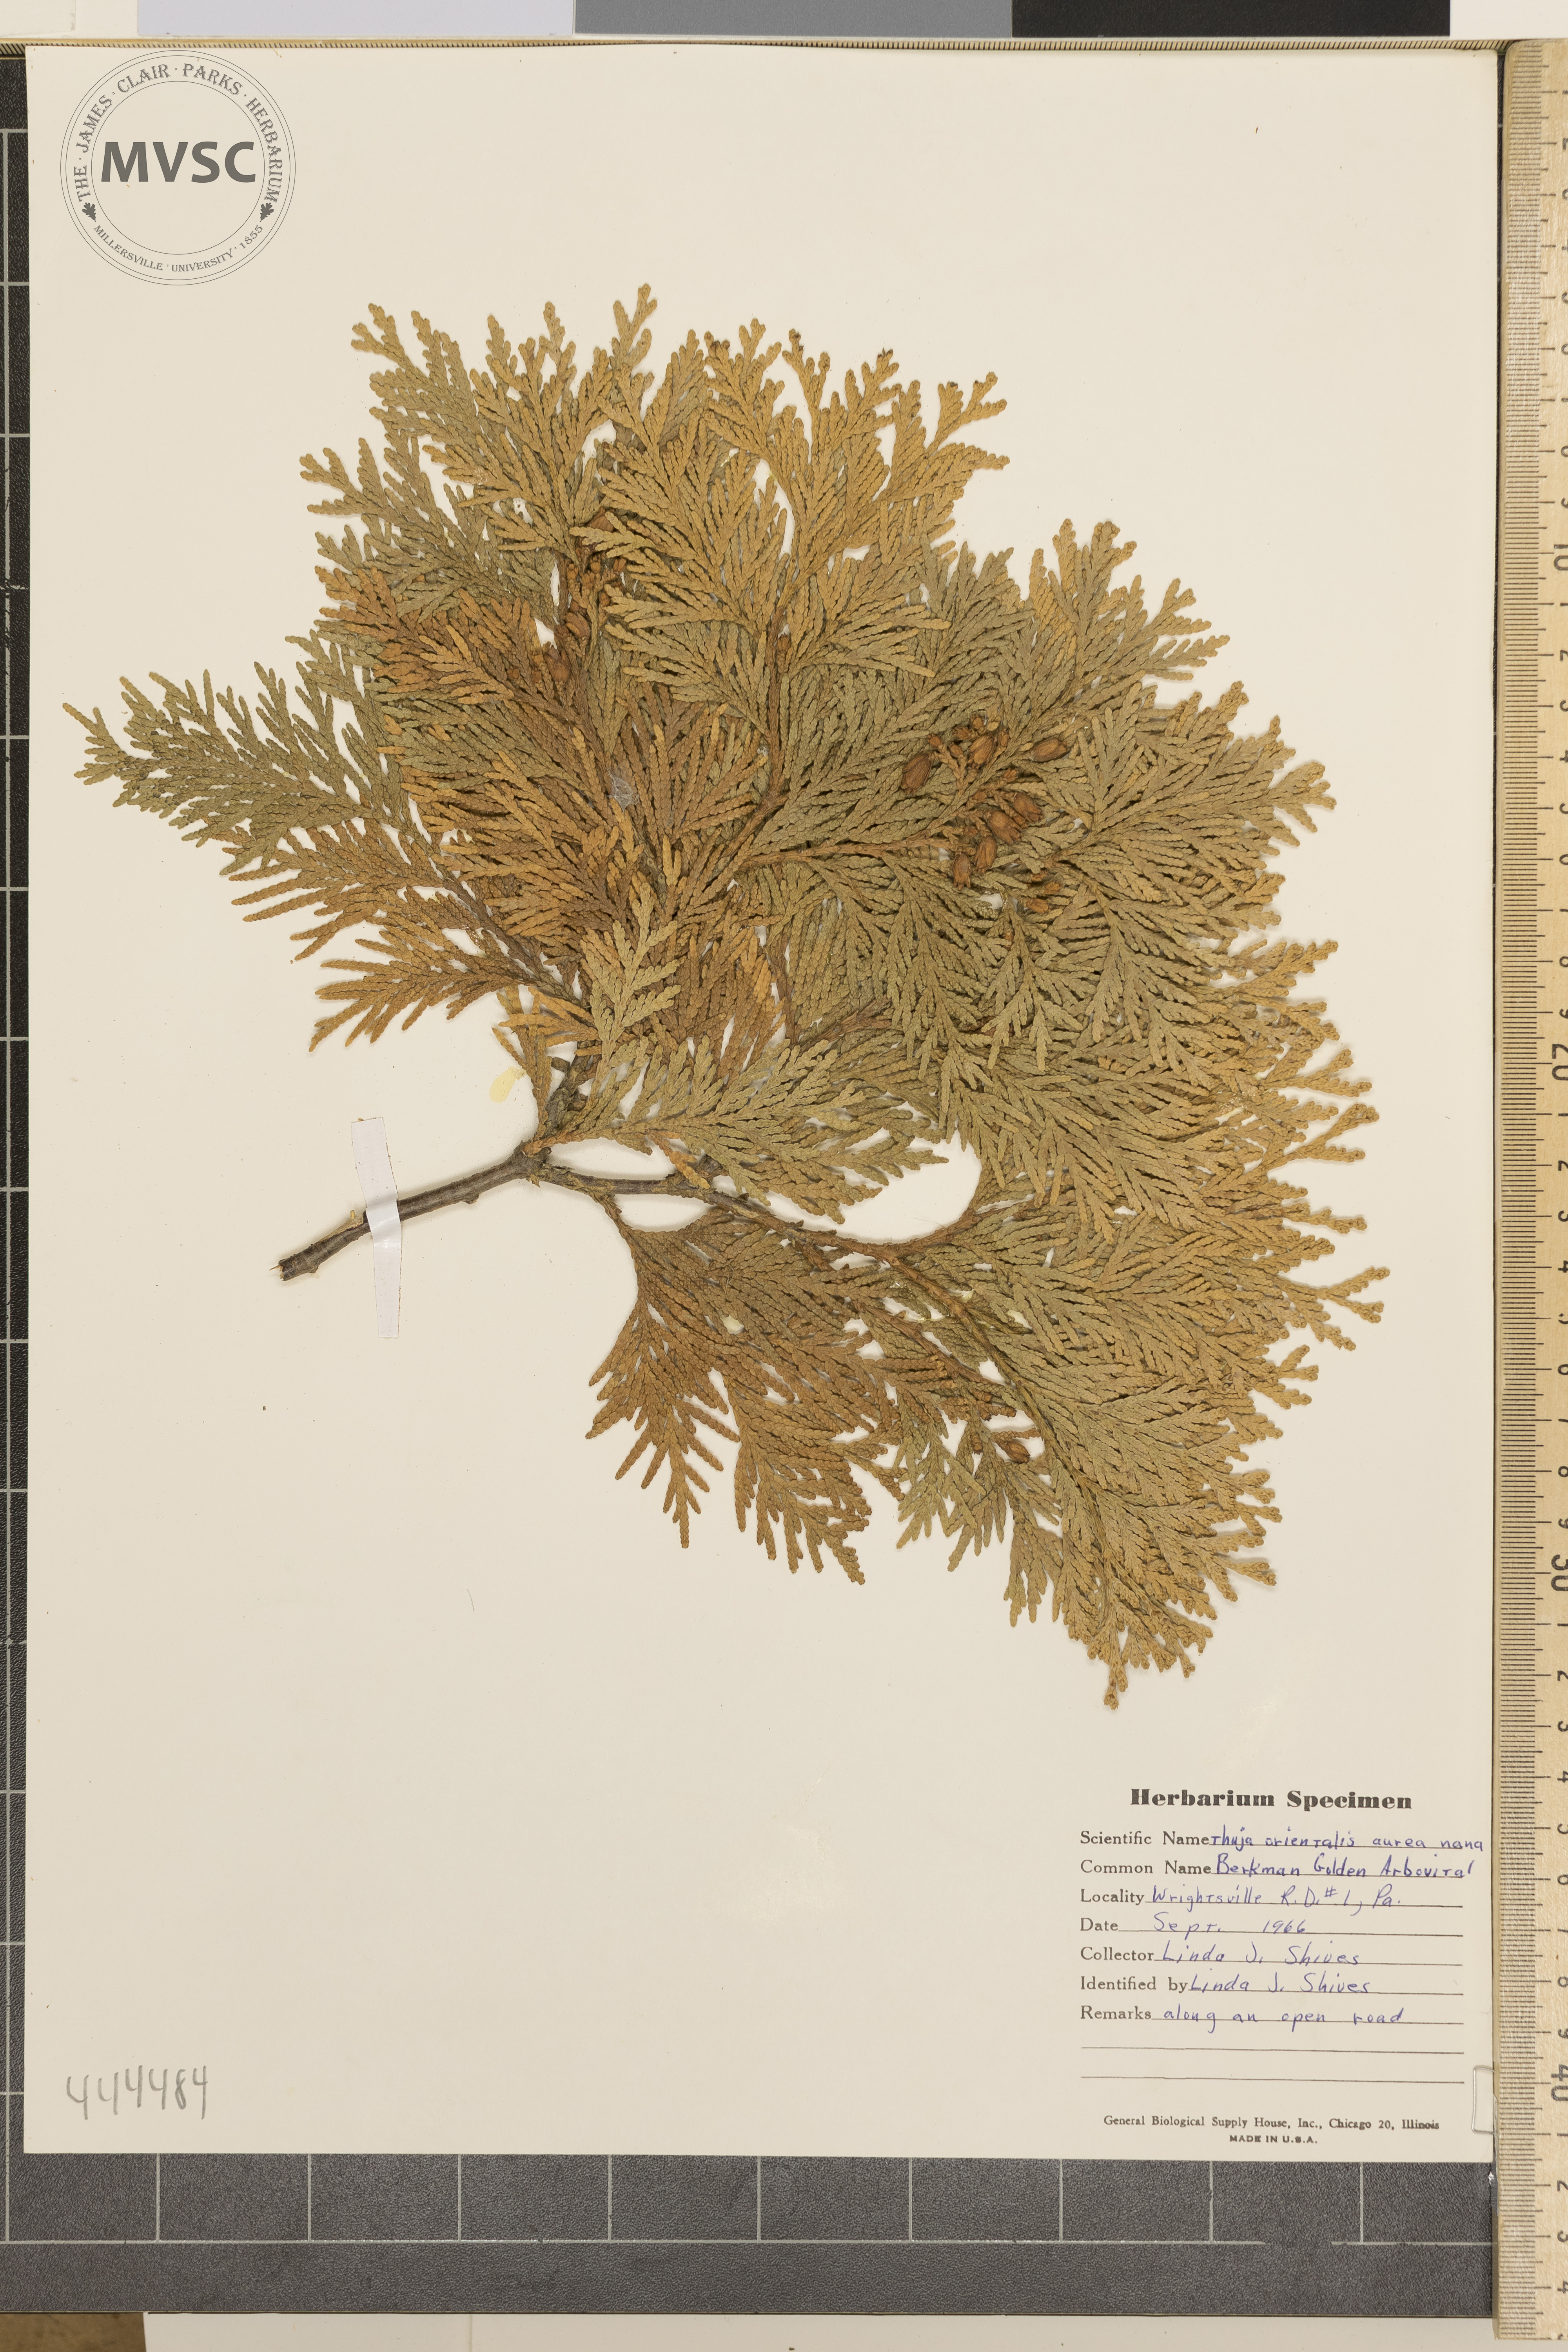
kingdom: Plantae
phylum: Tracheophyta
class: Pinopsida
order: Pinales
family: Cupressaceae
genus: Thuja
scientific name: Thuja occidentalis
